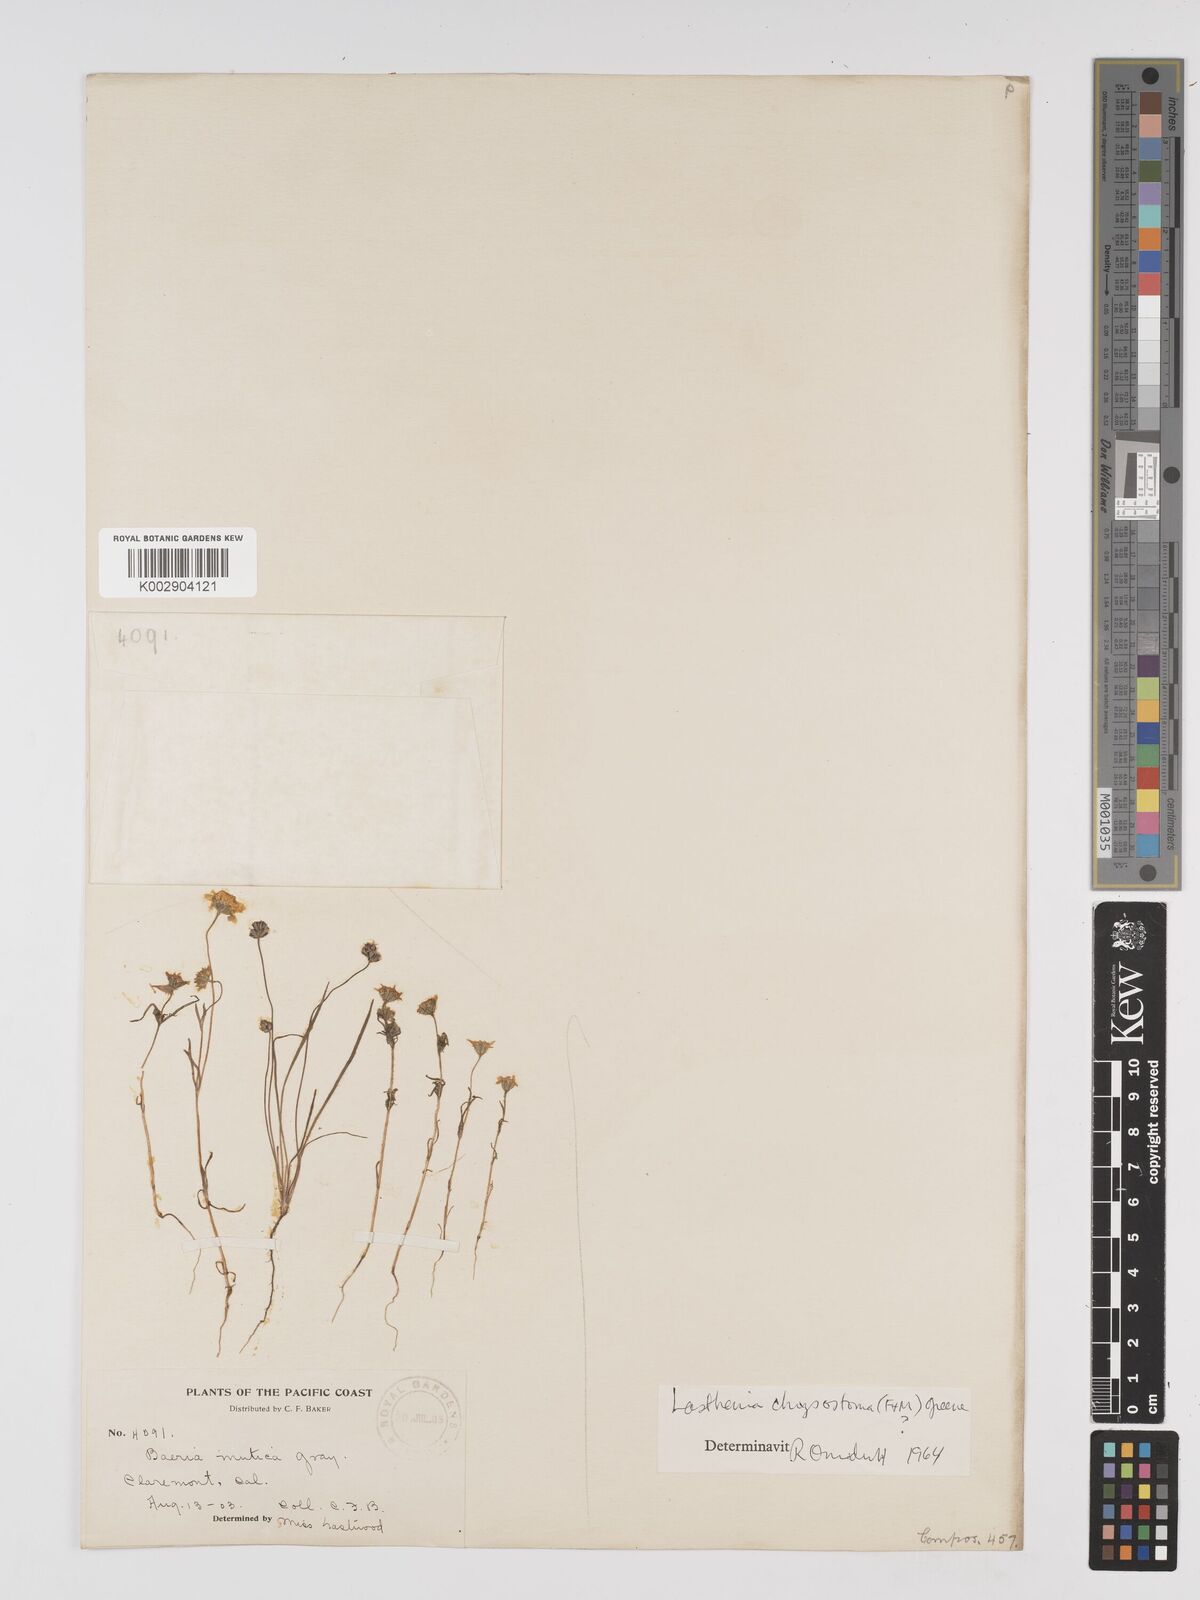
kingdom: Plantae
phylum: Tracheophyta
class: Magnoliopsida
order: Asterales
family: Asteraceae
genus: Lasthenia
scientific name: Lasthenia californica
